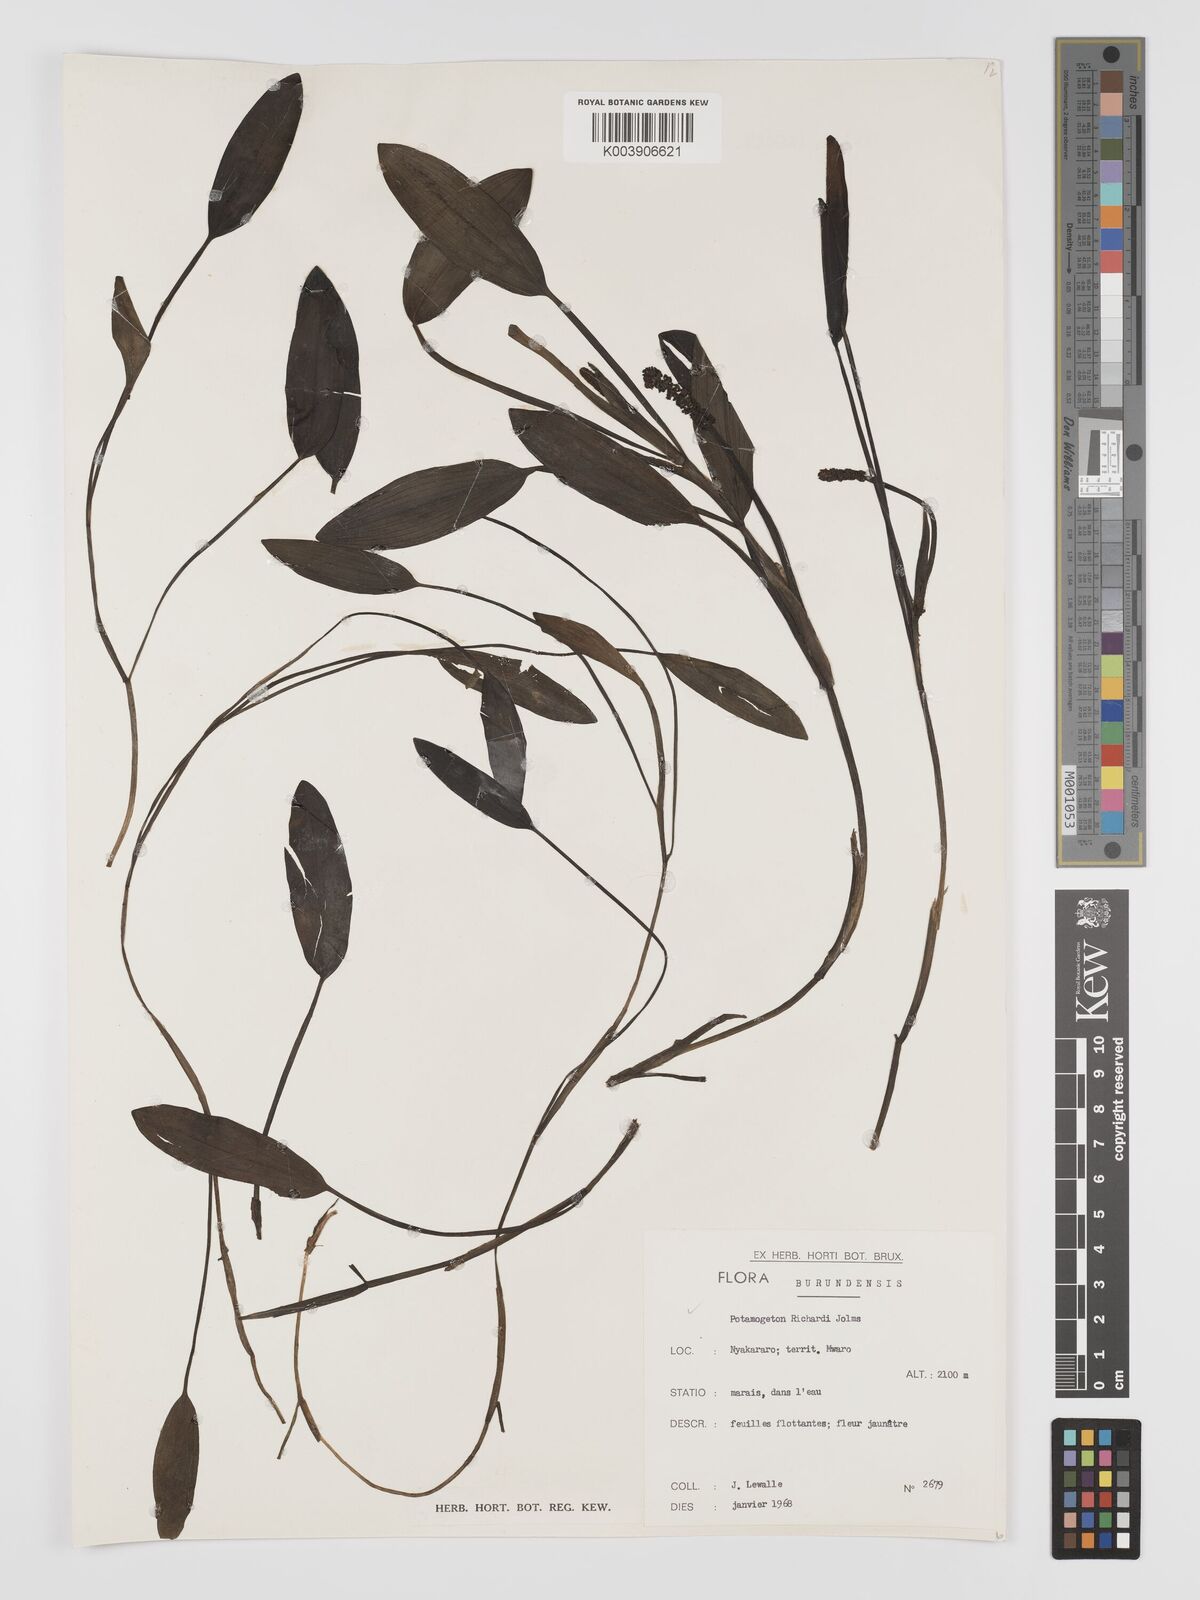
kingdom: Plantae
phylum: Tracheophyta
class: Liliopsida
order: Alismatales
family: Potamogetonaceae
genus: Potamogeton
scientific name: Potamogeton nodosus
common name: Loddon pondweed
